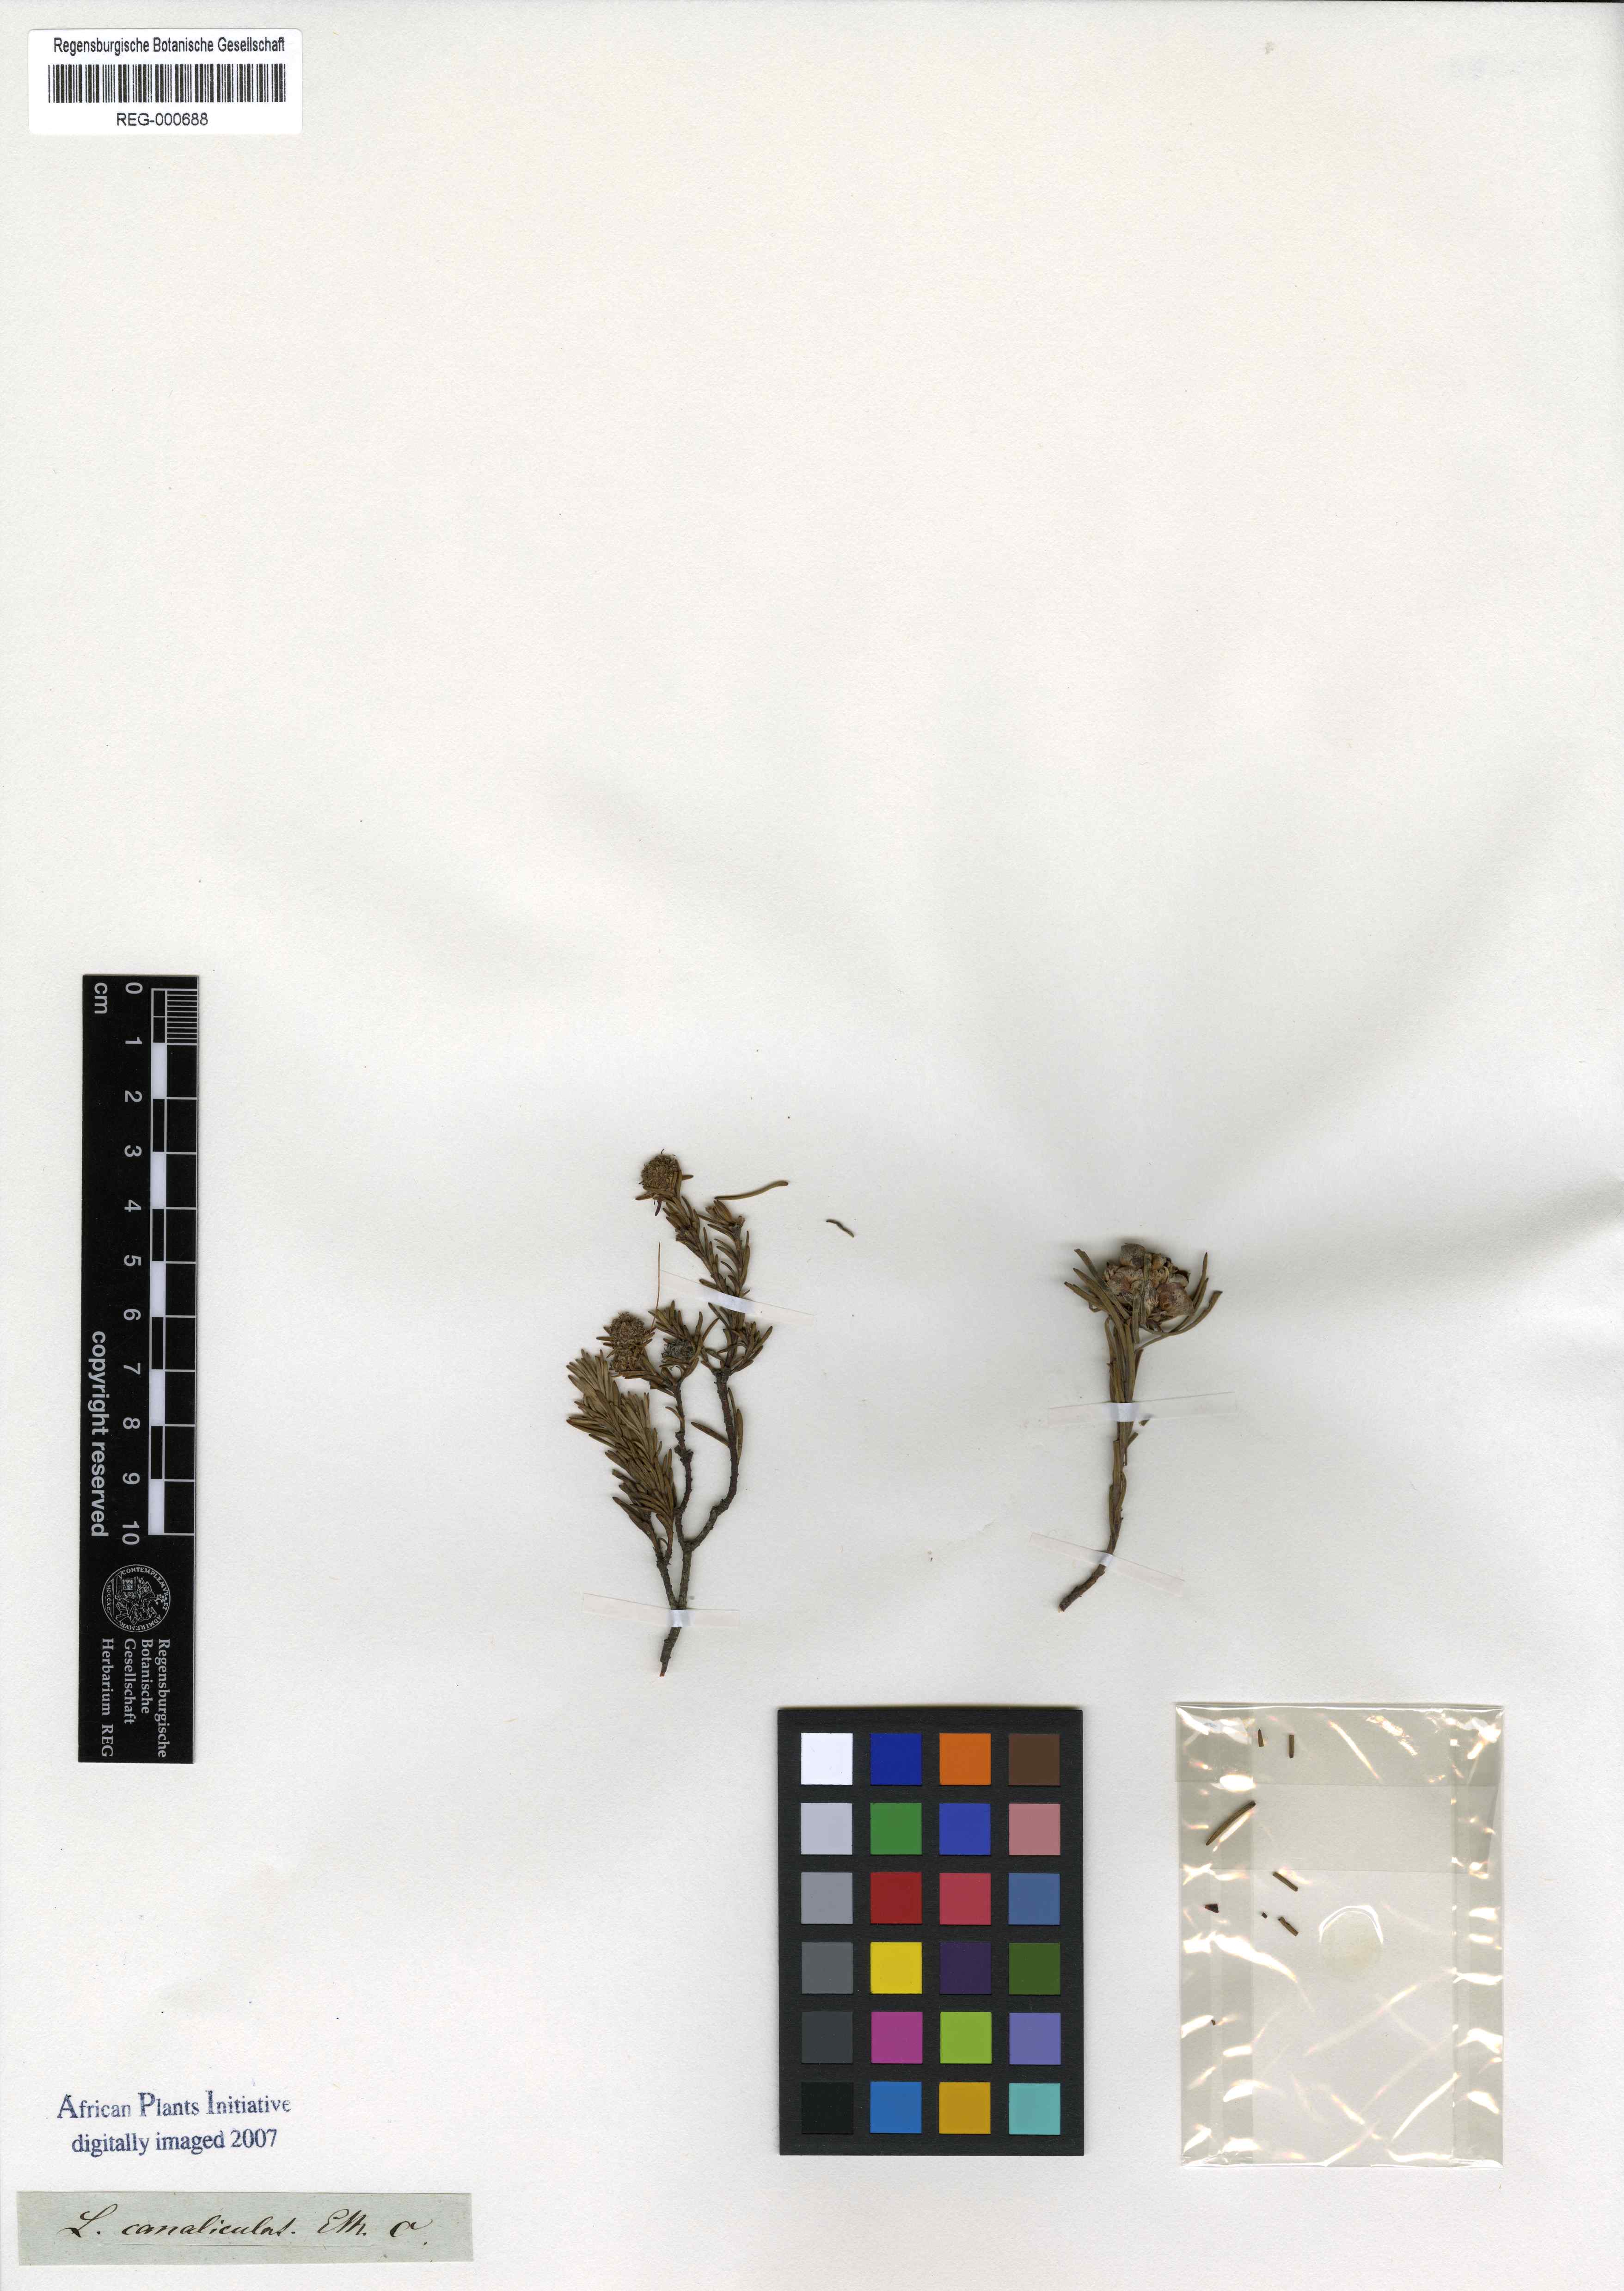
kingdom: Plantae
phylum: Tracheophyta
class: Magnoliopsida
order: Proteales
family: Proteaceae
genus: Leucospermum
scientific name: Leucospermum hypophyllocarpodendron
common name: Snakestem pincushion
